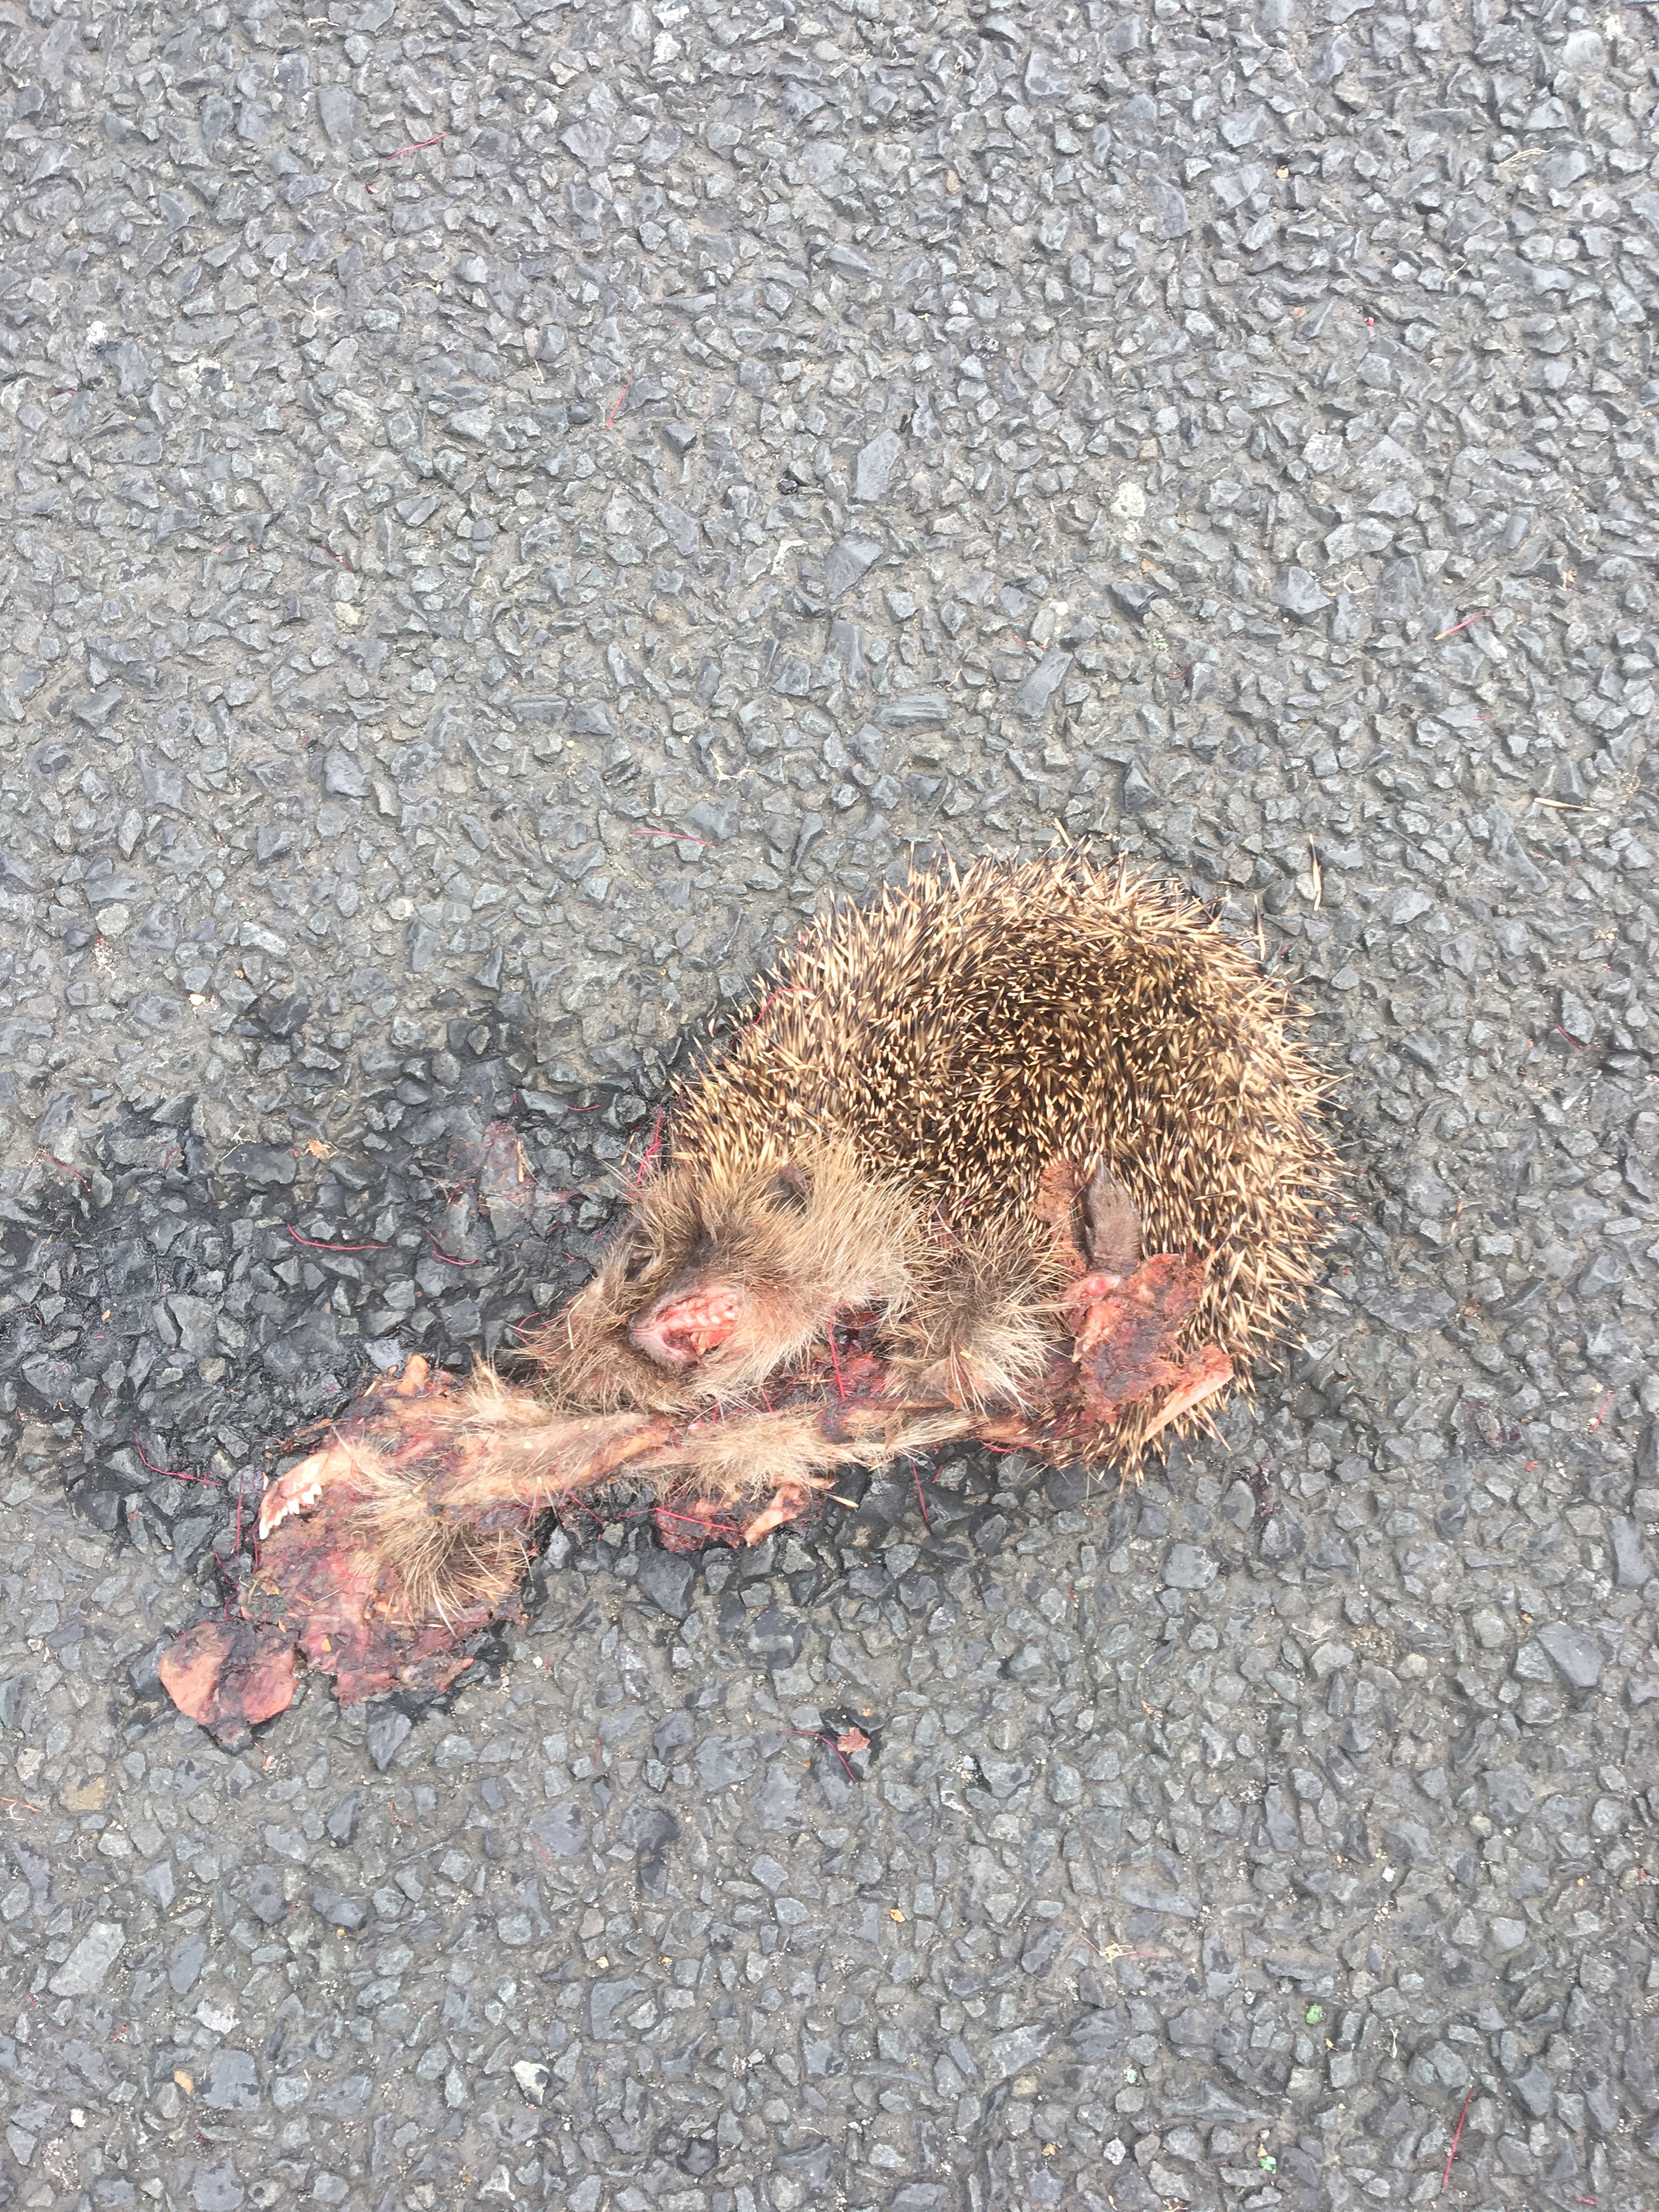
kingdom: Animalia
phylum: Chordata
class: Mammalia
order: Erinaceomorpha
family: Erinaceidae
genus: Erinaceus
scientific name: Erinaceus
